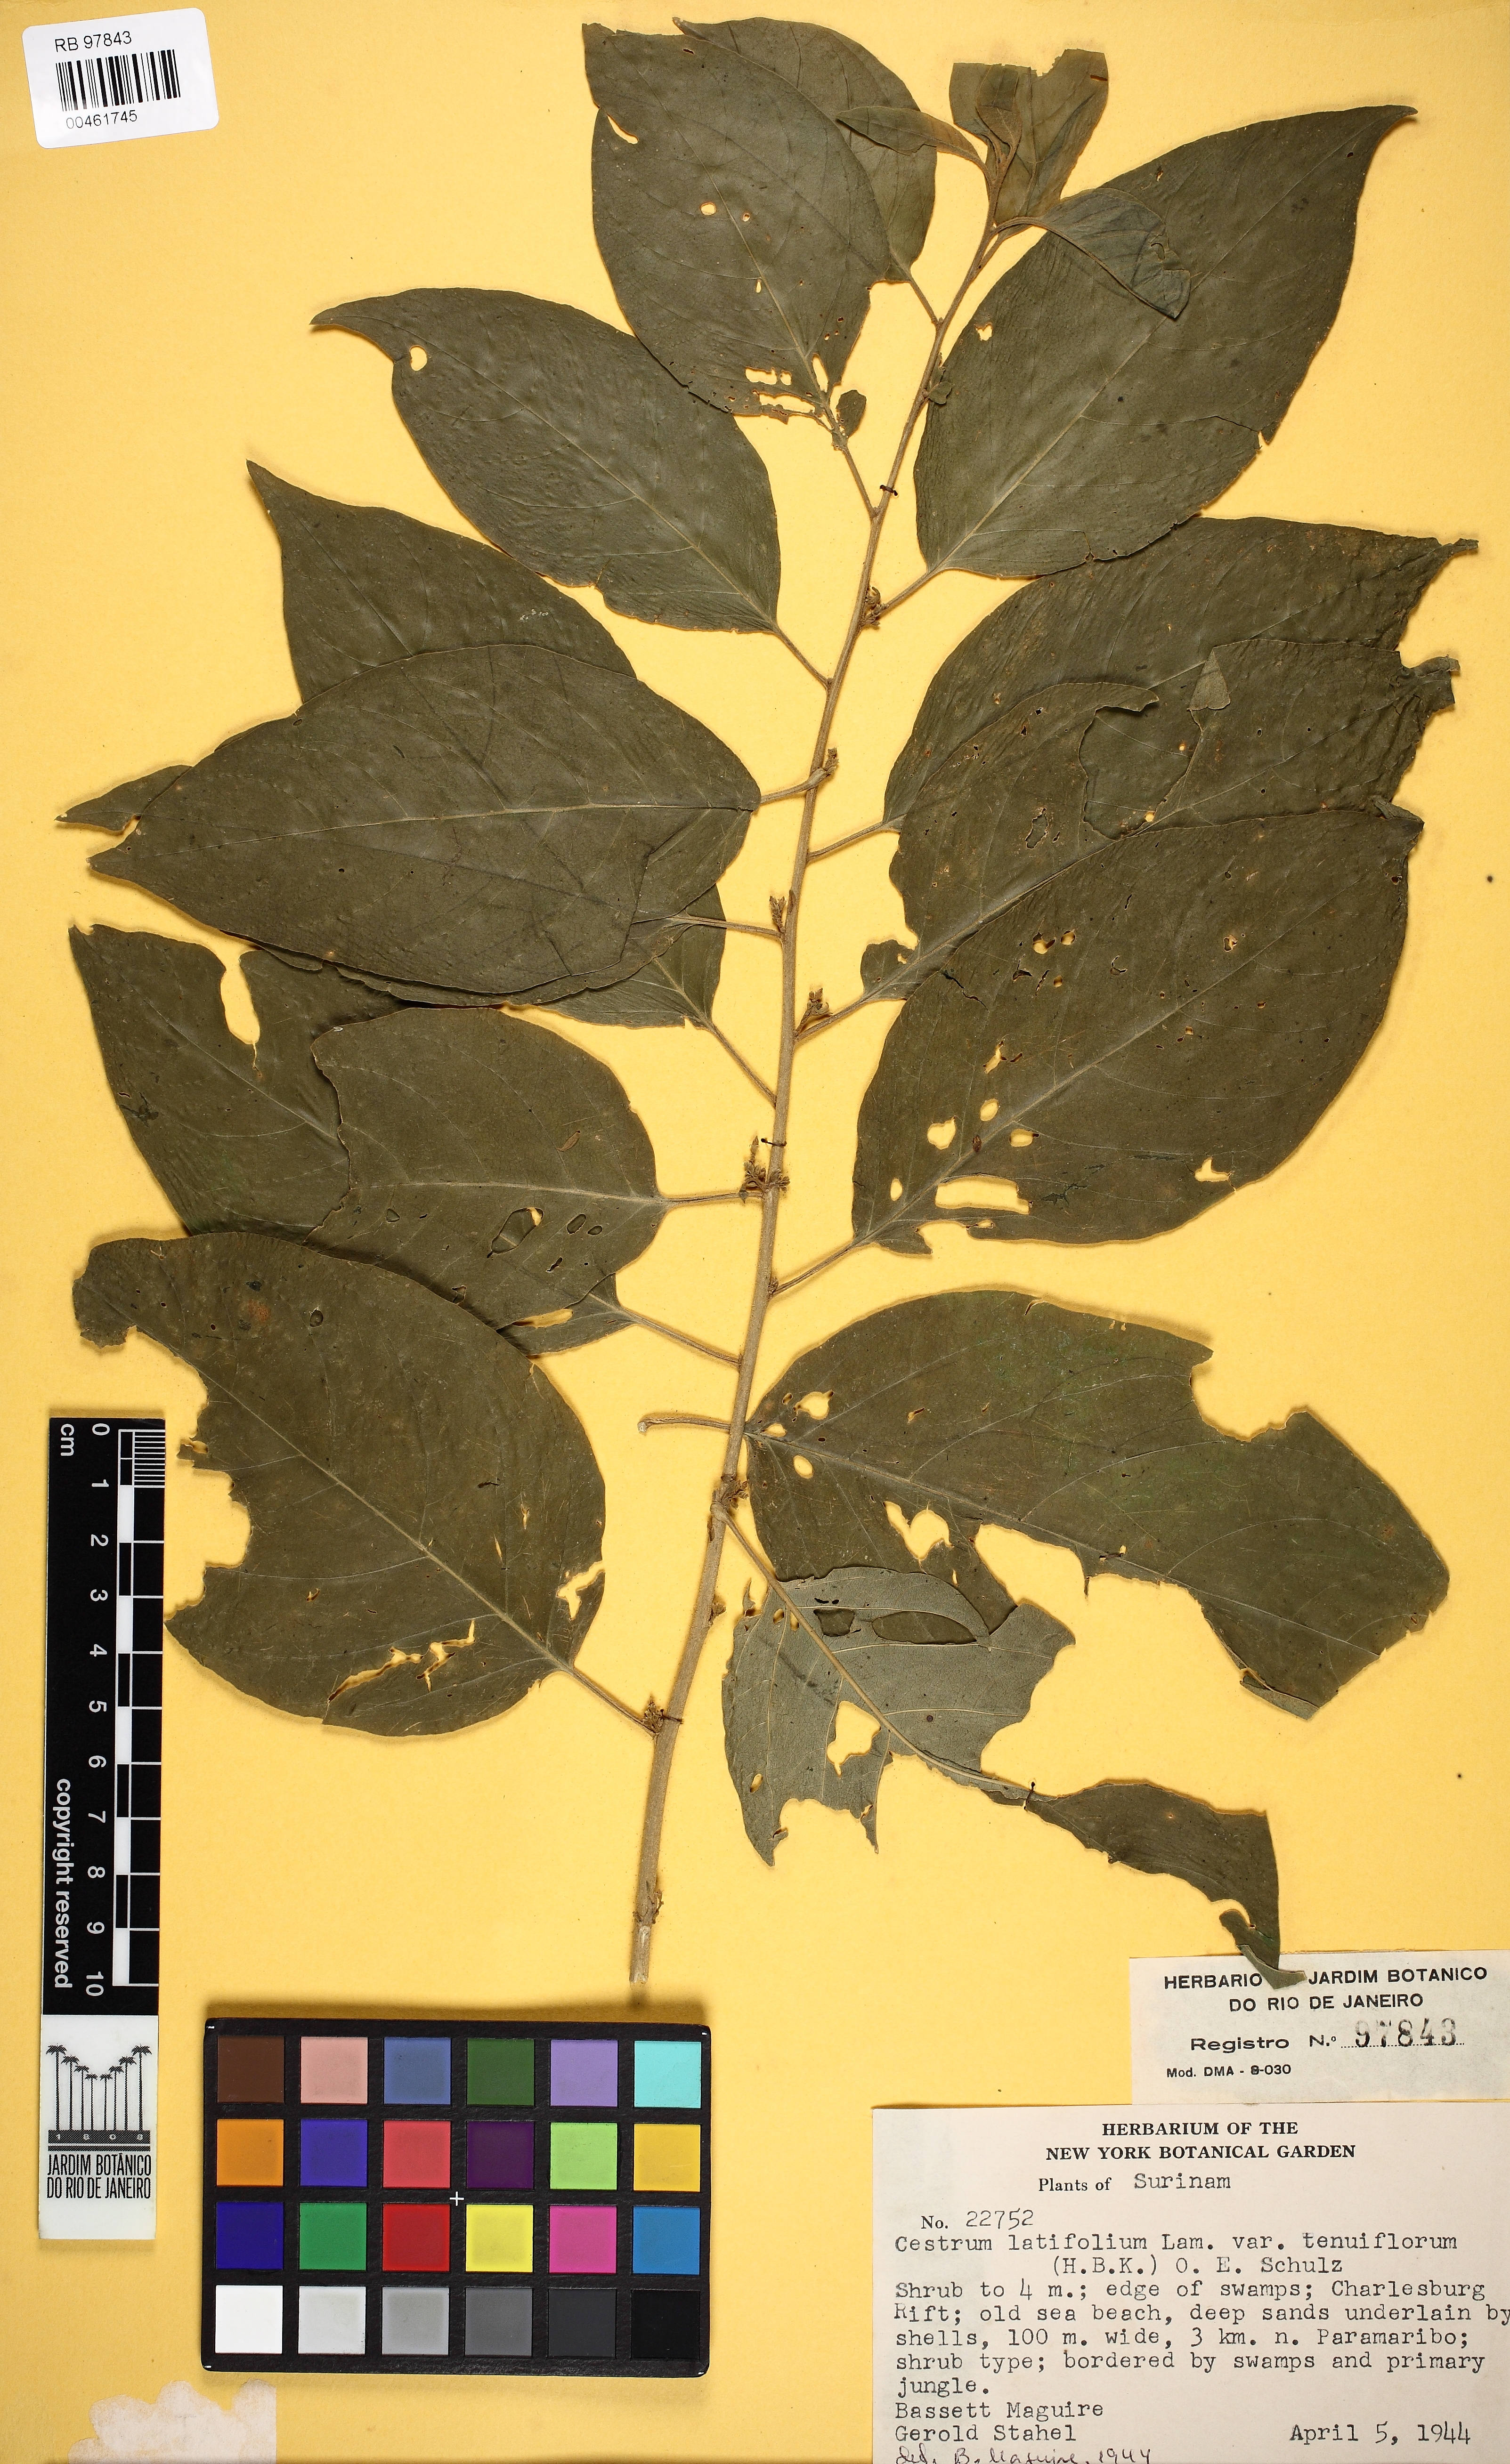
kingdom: Plantae
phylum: Tracheophyta
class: Magnoliopsida
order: Solanales
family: Solanaceae
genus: Cestrum
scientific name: Cestrum latifolium
